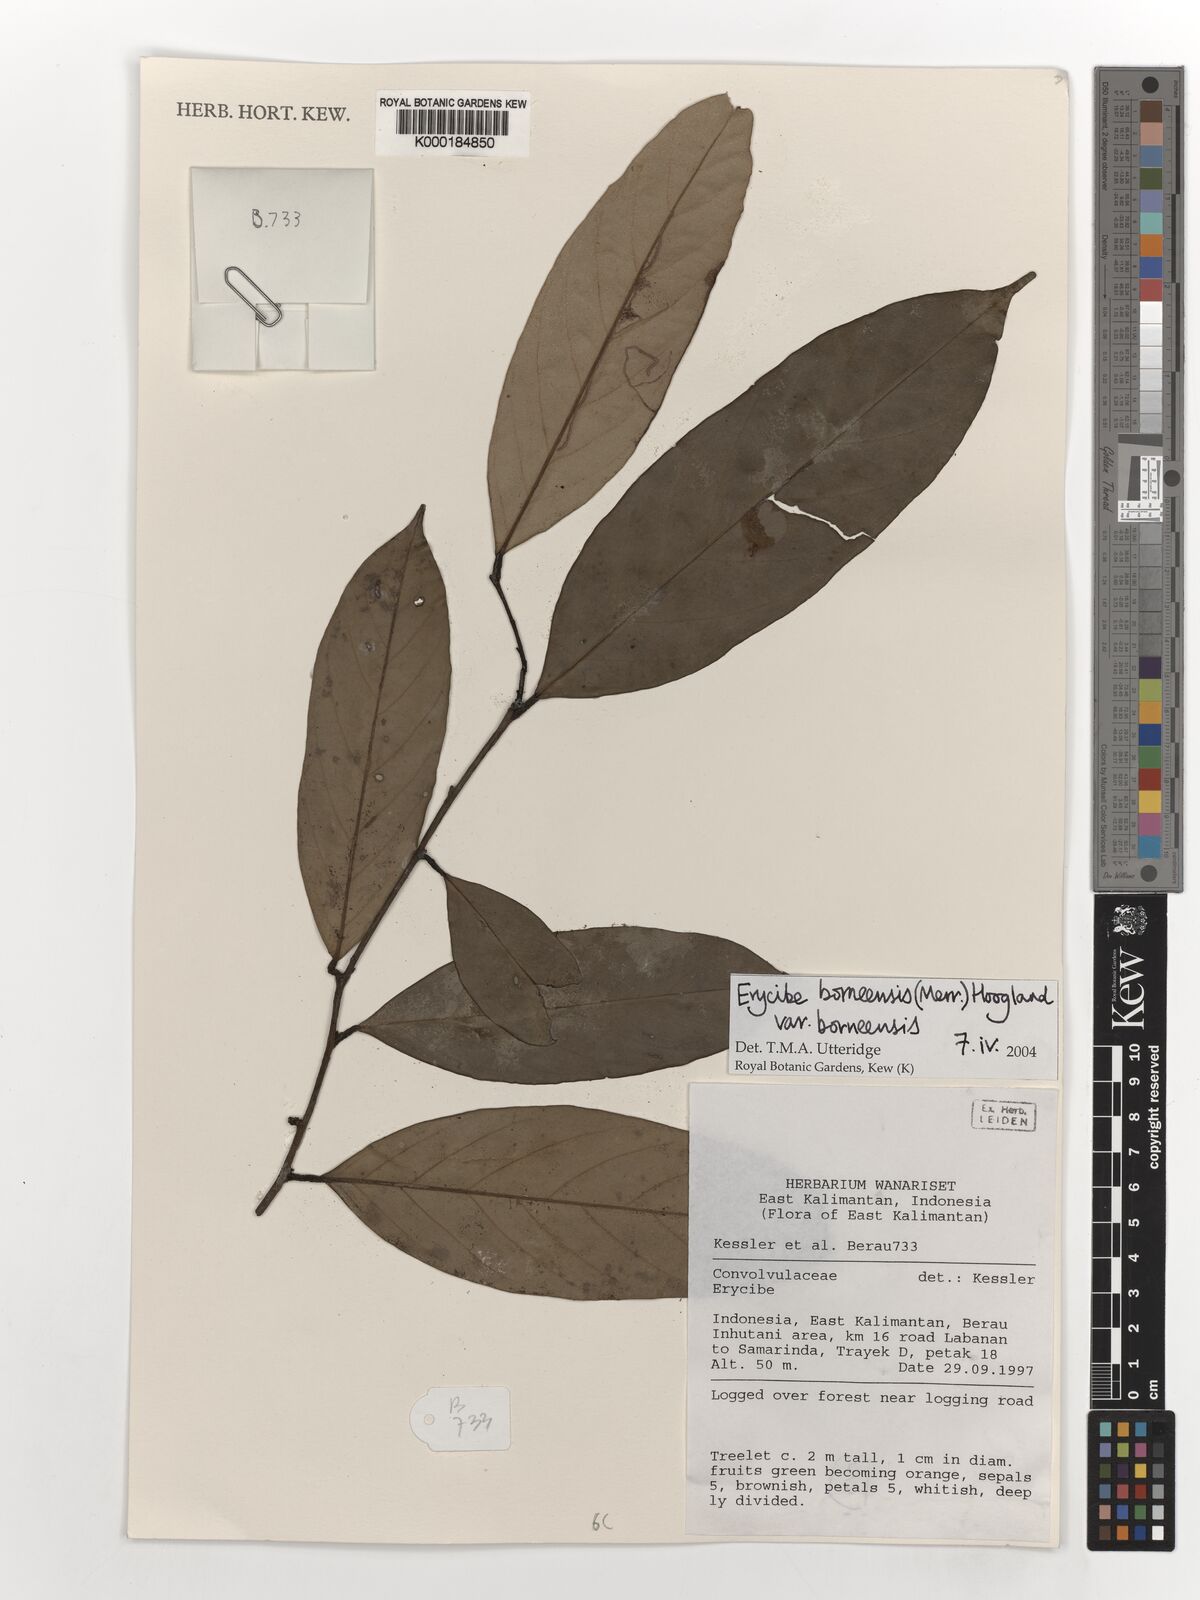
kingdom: Plantae
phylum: Tracheophyta
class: Magnoliopsida
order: Solanales
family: Convolvulaceae
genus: Erycibe
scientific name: Erycibe borneensis
